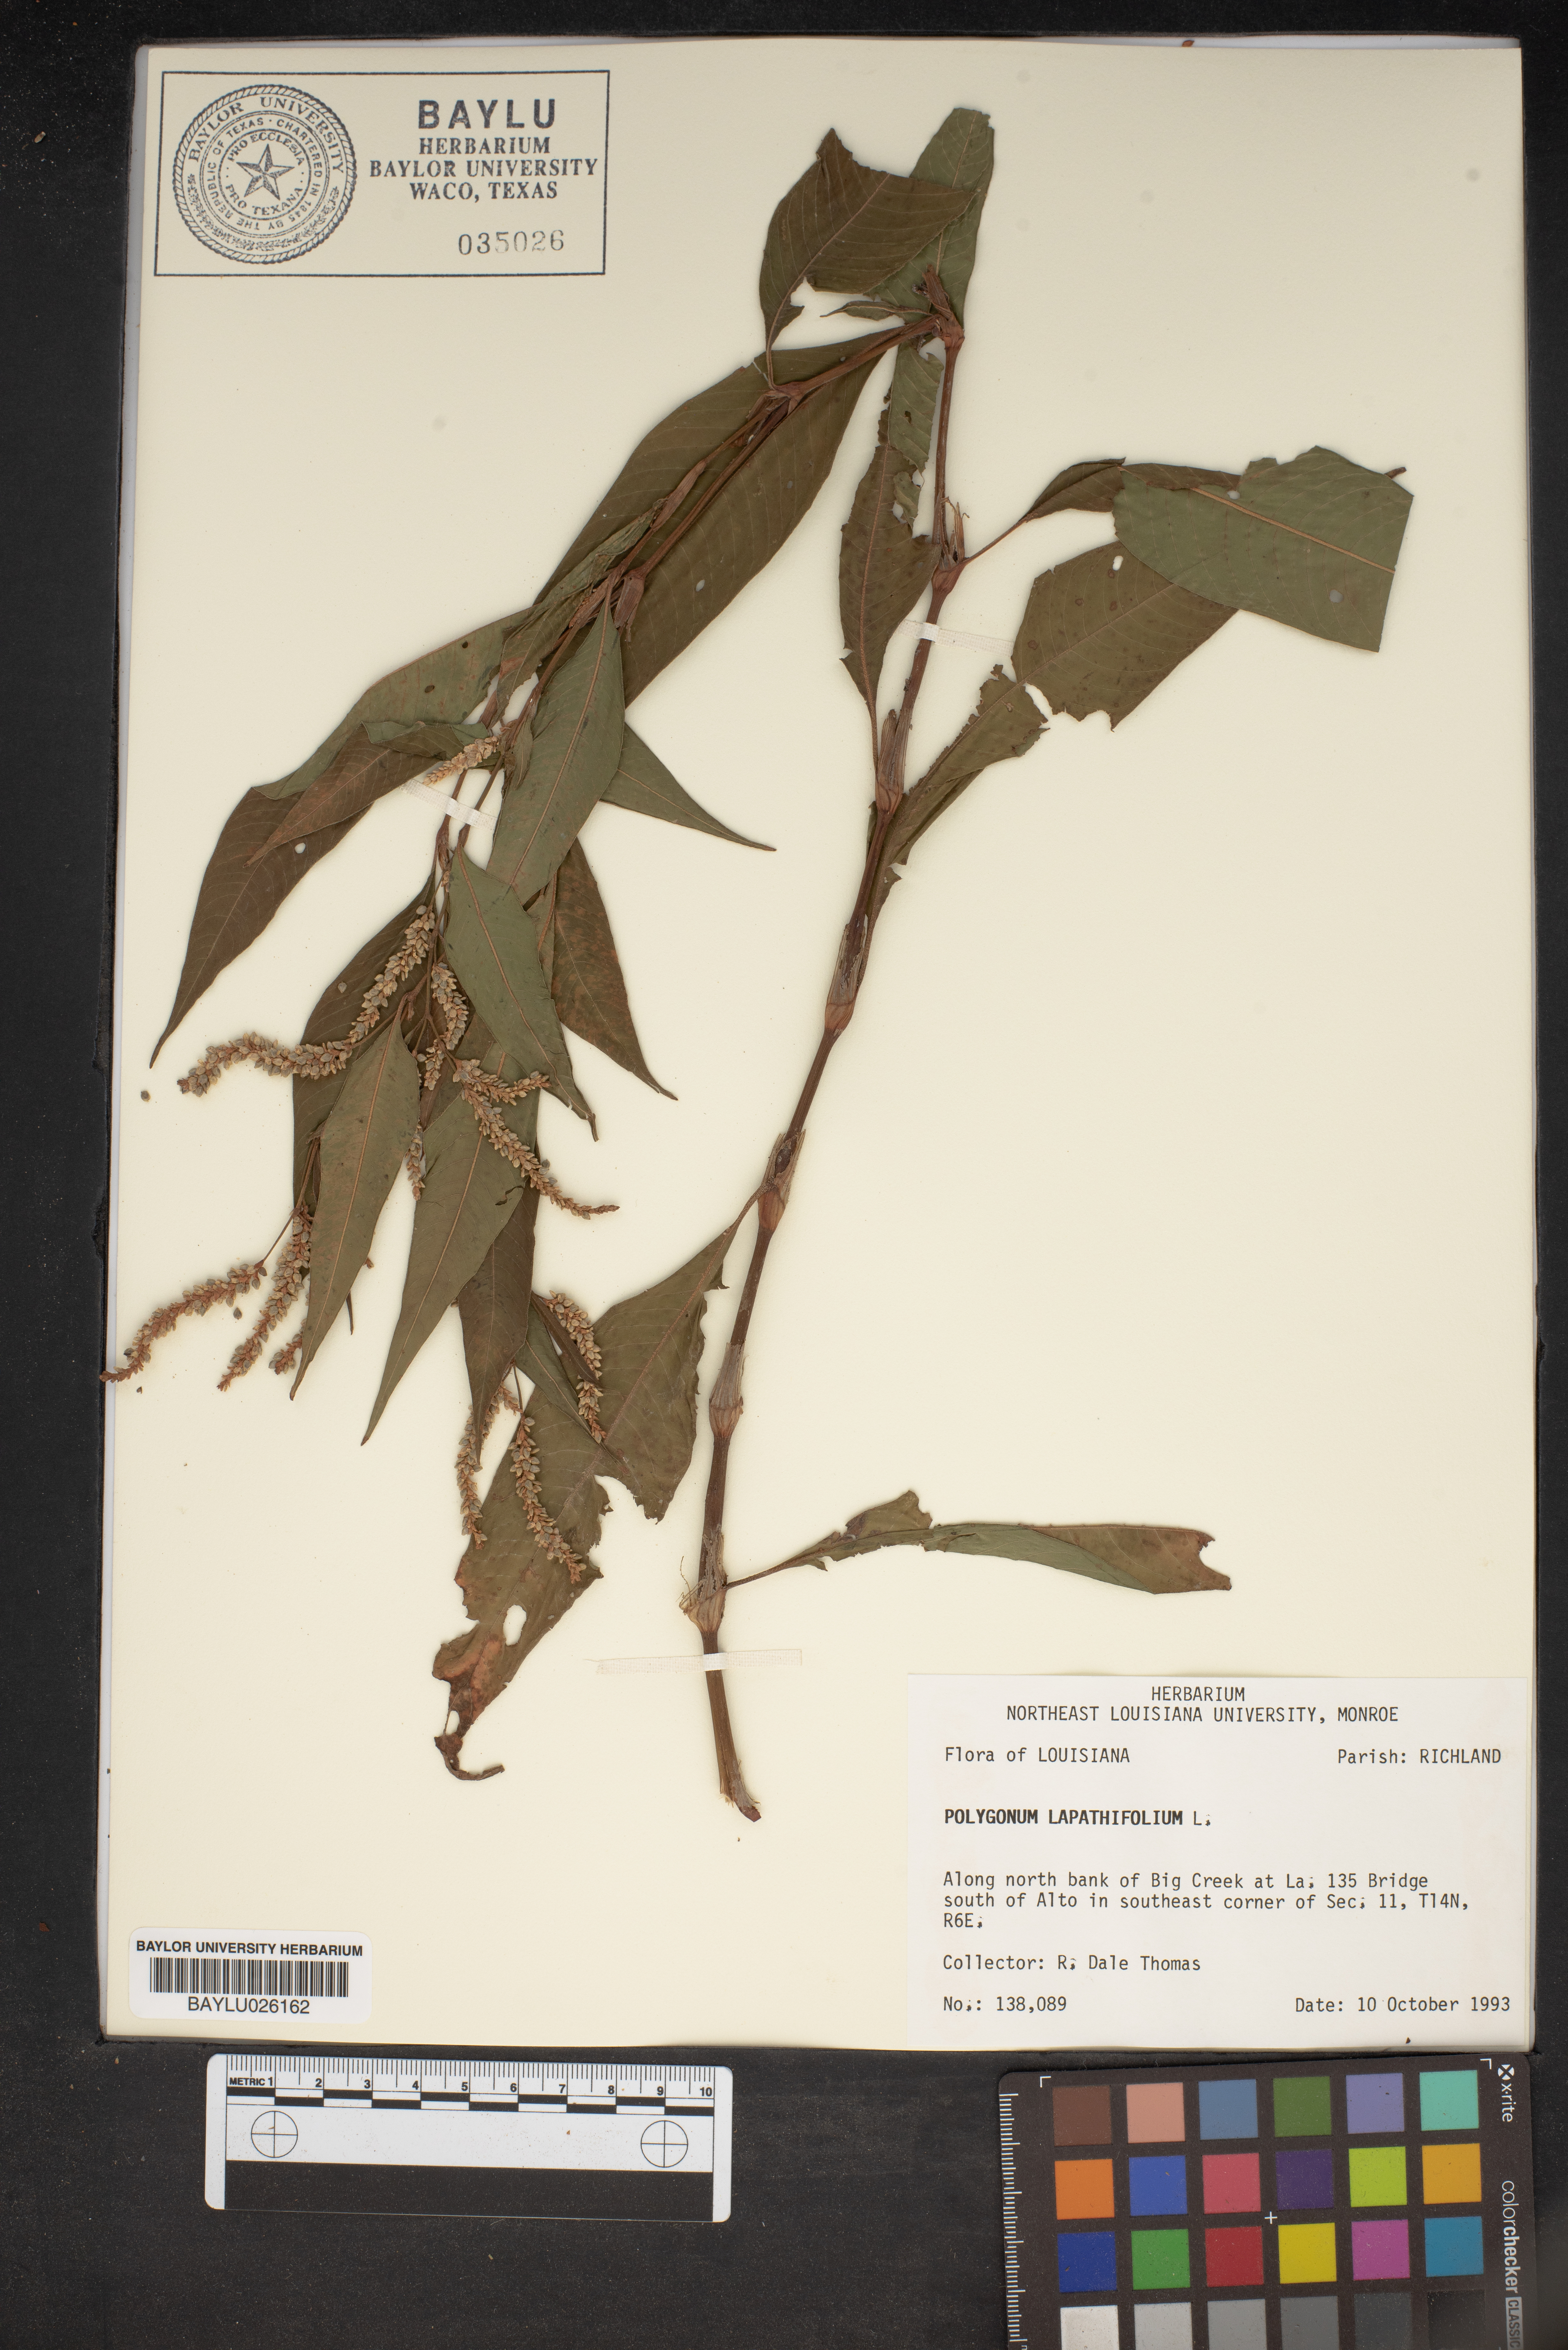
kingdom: Plantae
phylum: Tracheophyta
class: Magnoliopsida
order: Caryophyllales
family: Polygonaceae
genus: Persicaria
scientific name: Persicaria lapathifolia
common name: Curlytop knotweed
